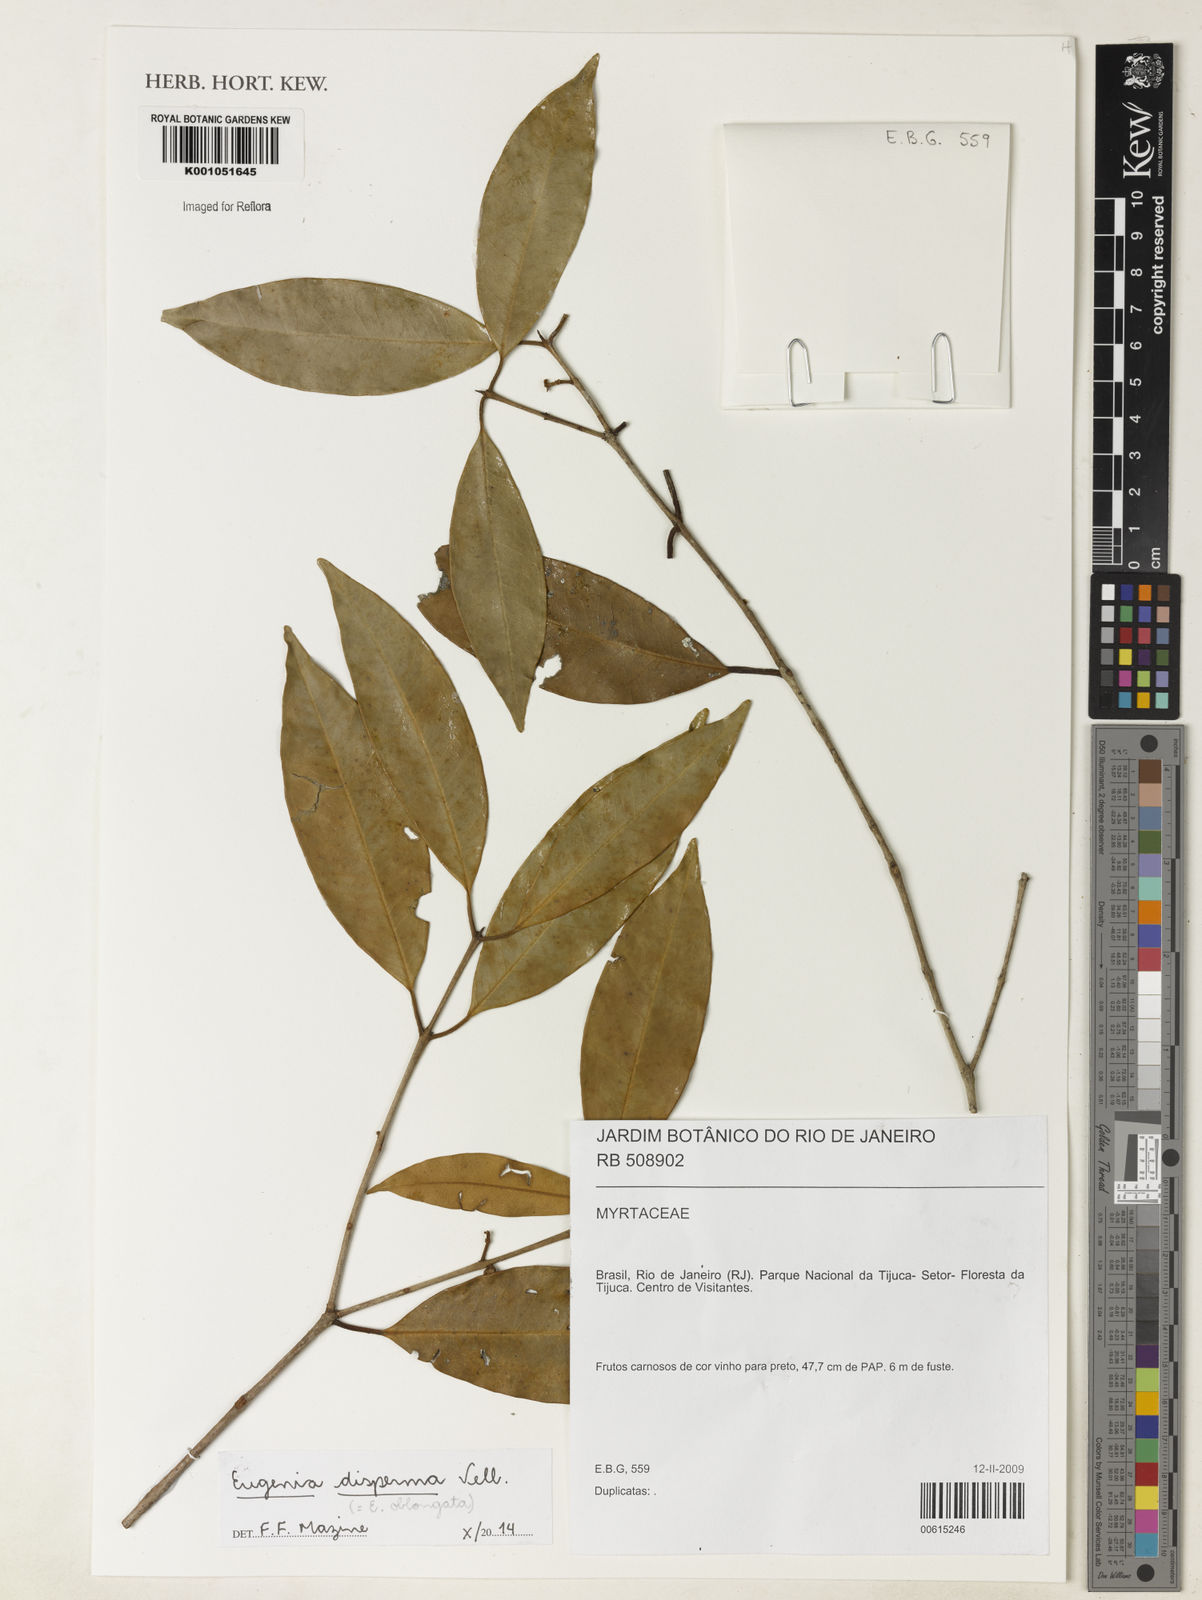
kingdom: Plantae
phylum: Tracheophyta
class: Magnoliopsida
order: Myrtales
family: Myrtaceae
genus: Eugenia
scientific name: Eugenia disperma
